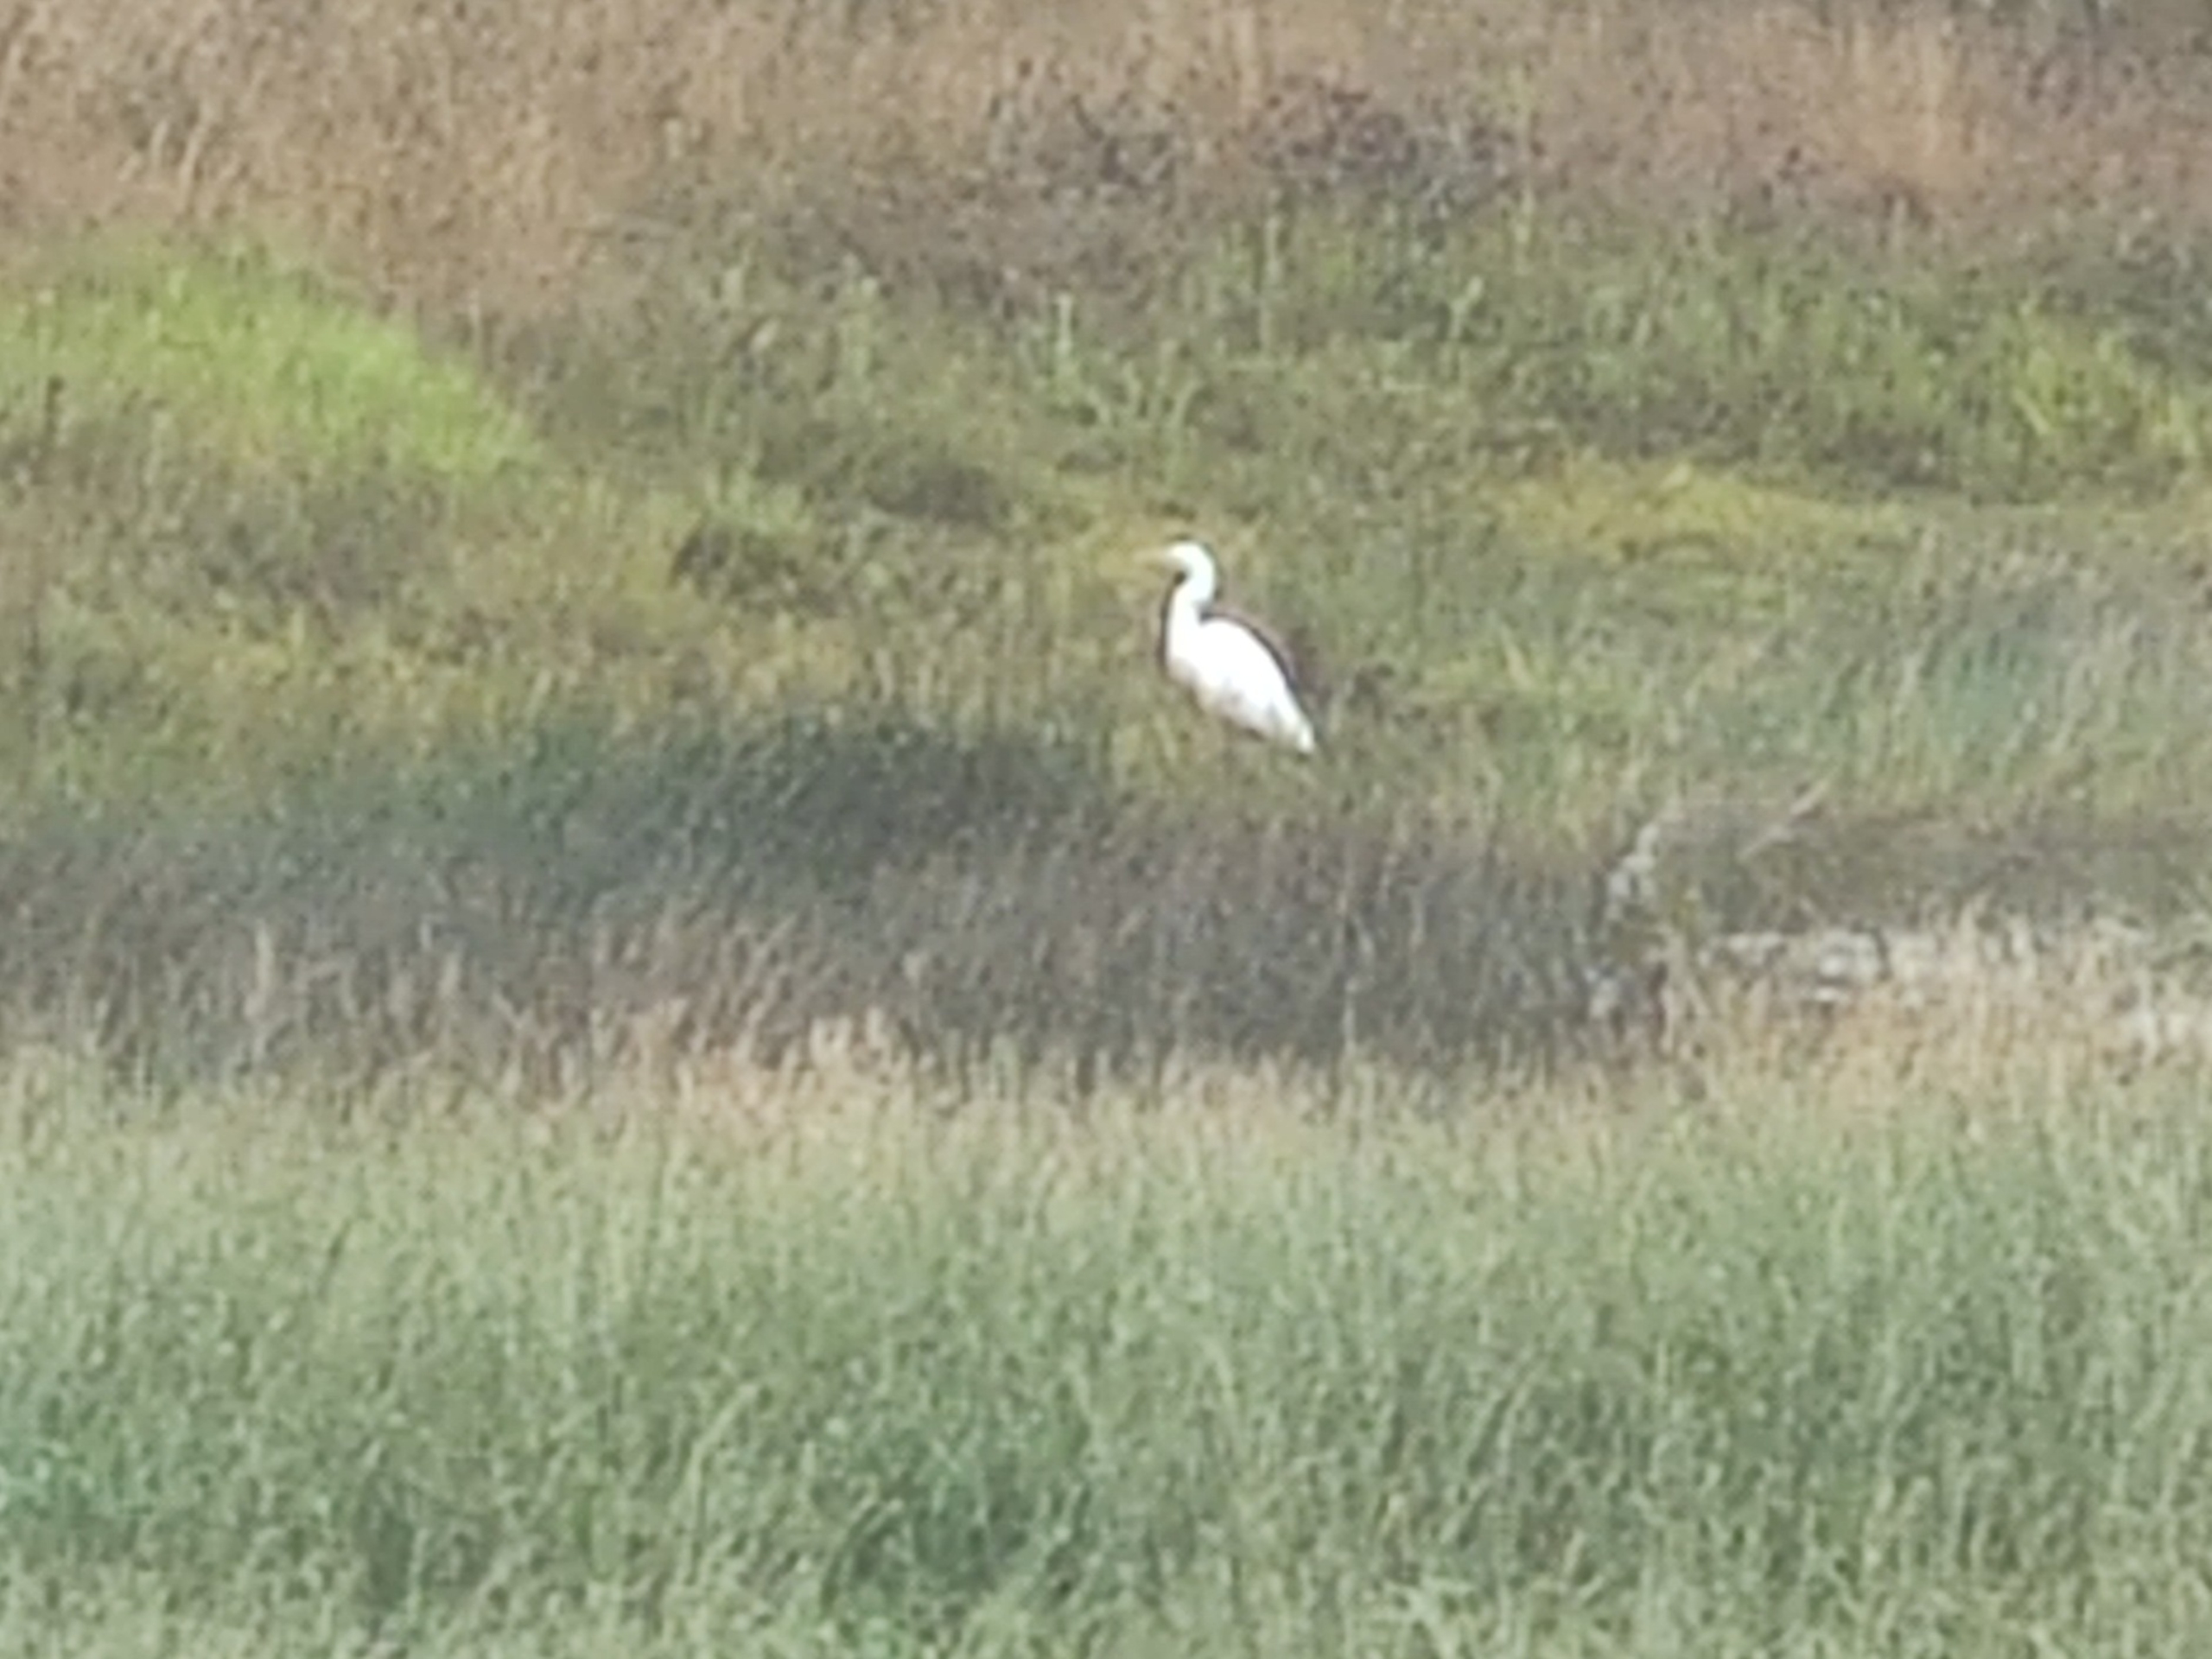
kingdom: Animalia
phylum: Chordata
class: Aves
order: Pelecaniformes
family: Ardeidae
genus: Ardea
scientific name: Ardea alba
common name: Sølvhejre
